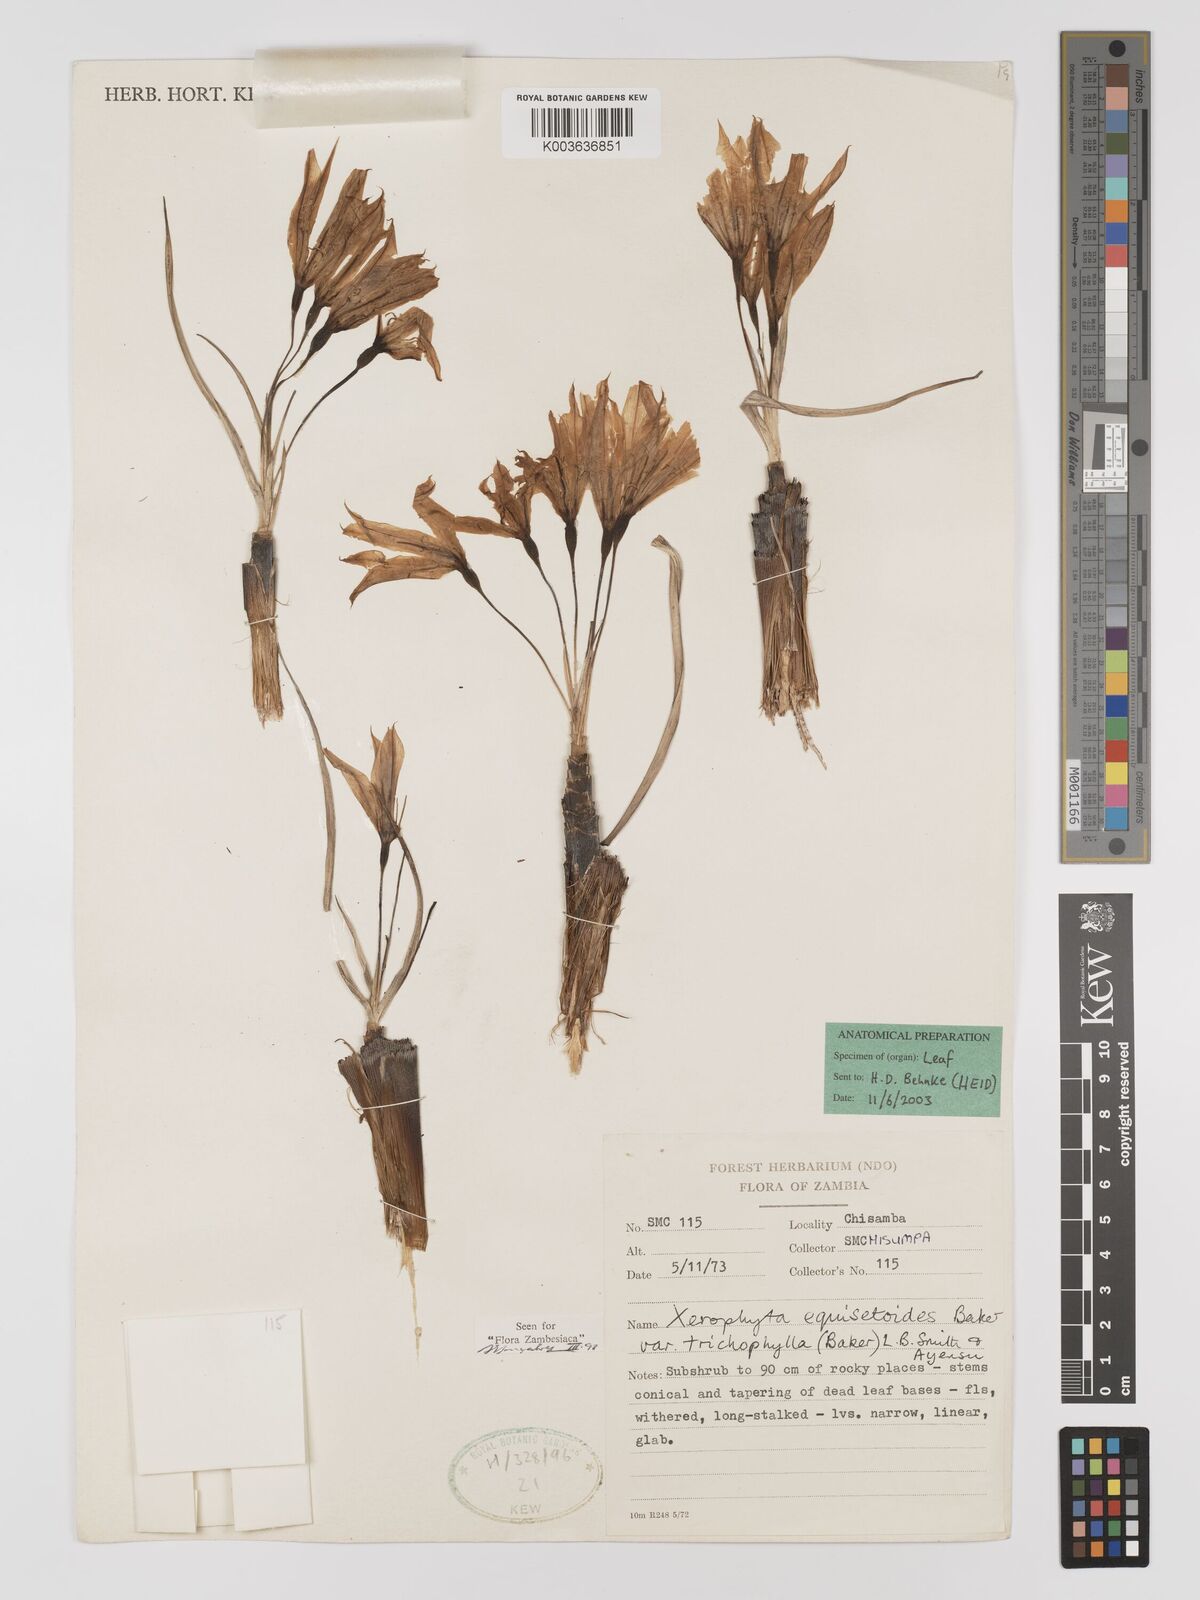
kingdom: Plantae
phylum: Tracheophyta
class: Liliopsida
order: Pandanales
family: Velloziaceae
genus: Xerophyta
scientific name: Xerophyta trichophylla
